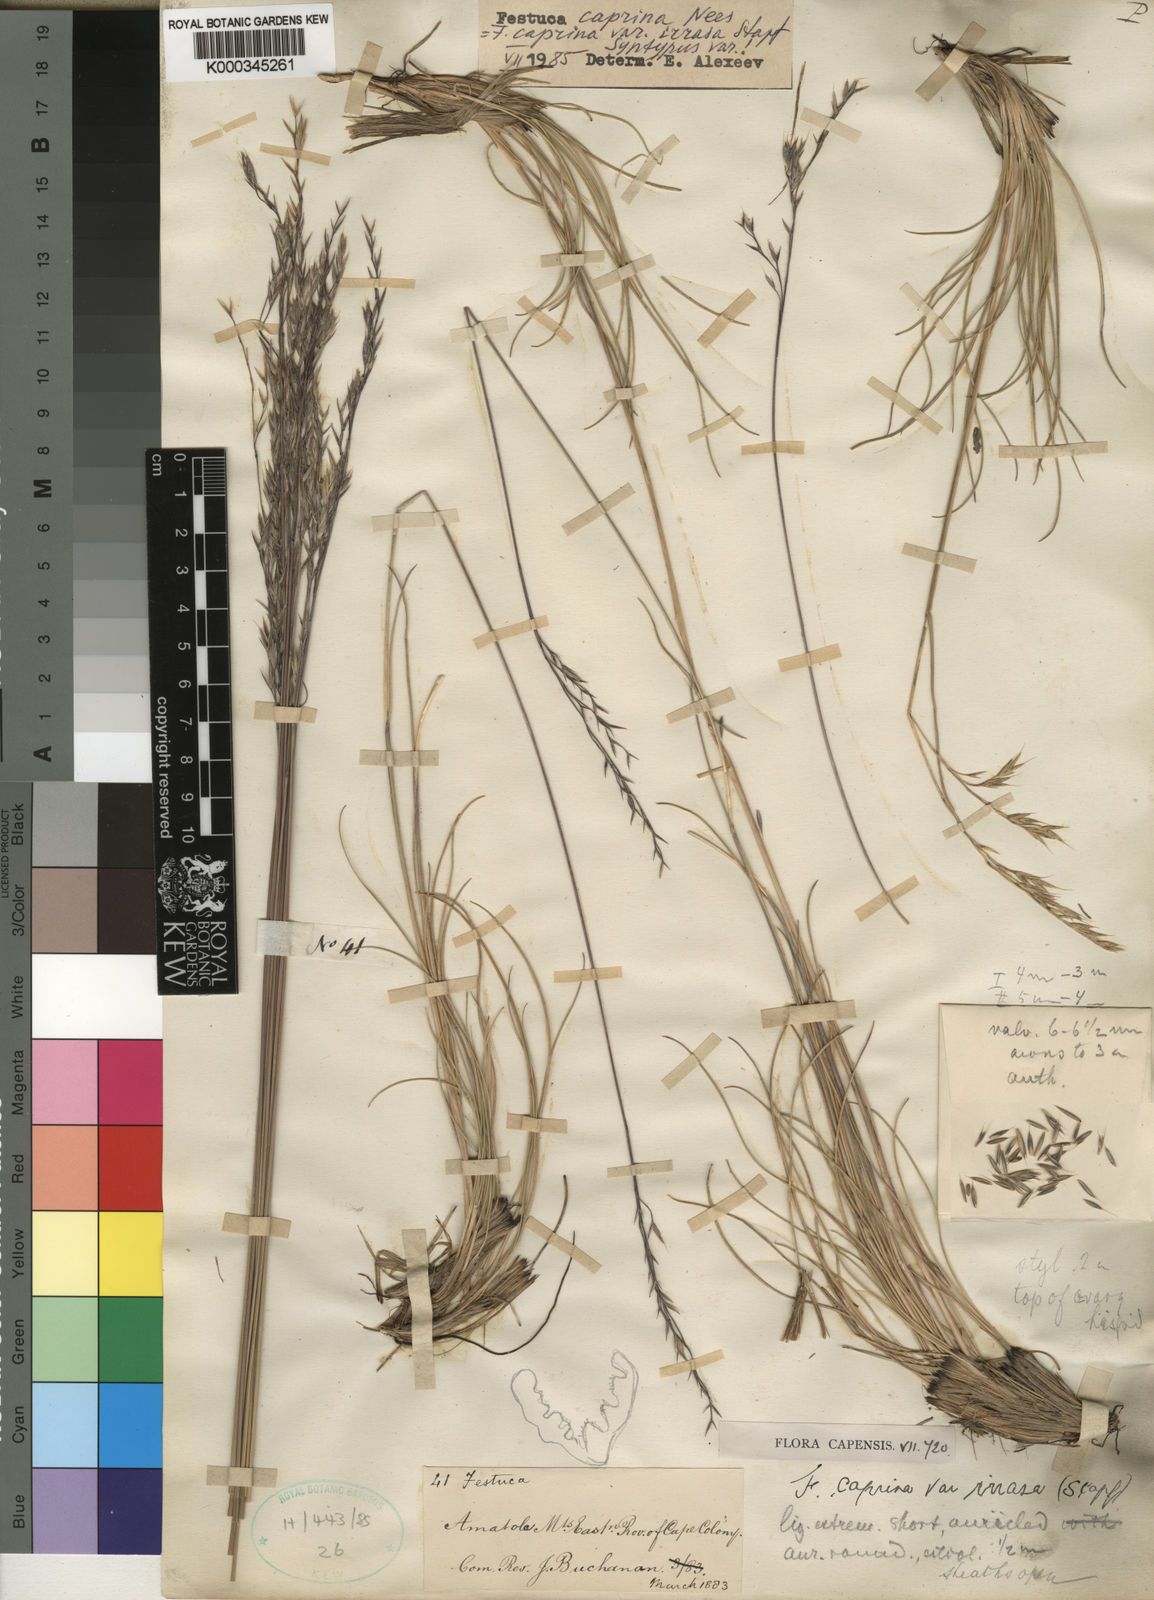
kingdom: Plantae
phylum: Tracheophyta
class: Liliopsida
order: Poales
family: Poaceae
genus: Festuca
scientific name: Festuca caprina
